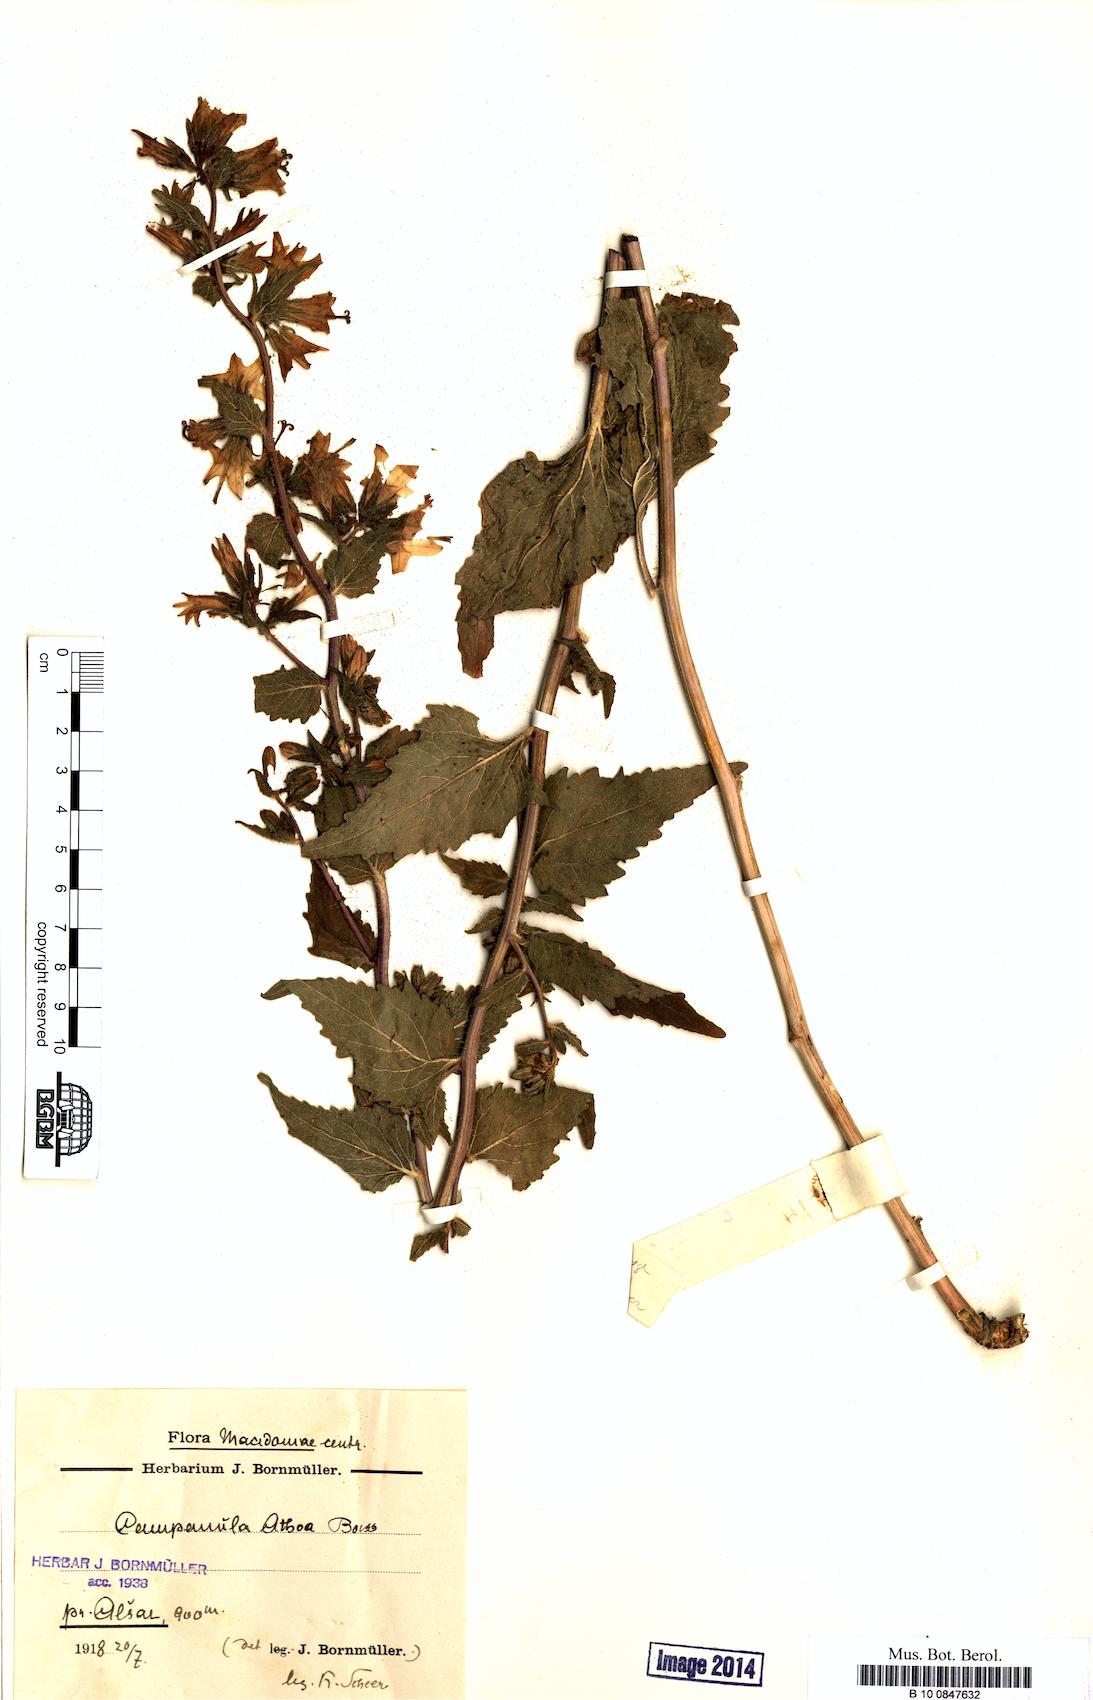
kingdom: Plantae
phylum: Tracheophyta
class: Magnoliopsida
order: Asterales
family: Campanulaceae
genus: Campanula
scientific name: Campanula trachelium
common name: Nettle-leaved bellflower
